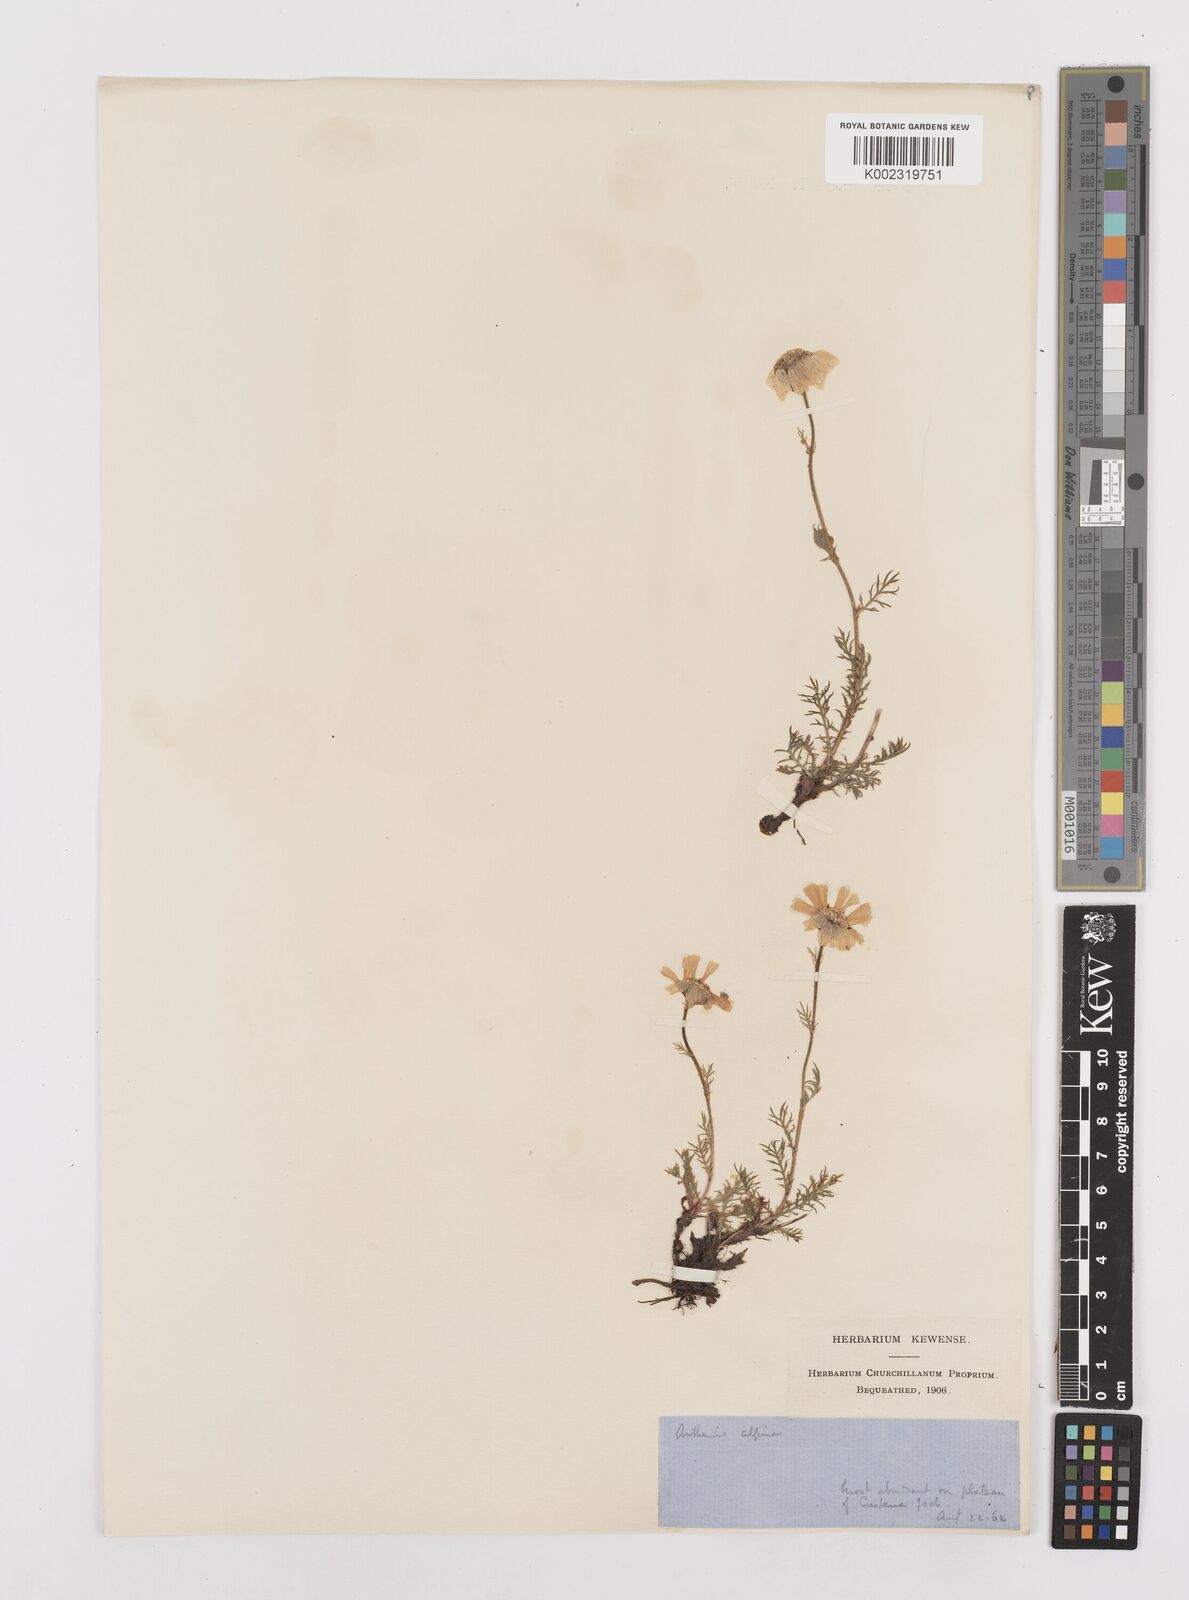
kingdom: Plantae
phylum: Tracheophyta
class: Magnoliopsida
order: Asterales
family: Asteraceae
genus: Achillea
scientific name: Achillea oxyloba
